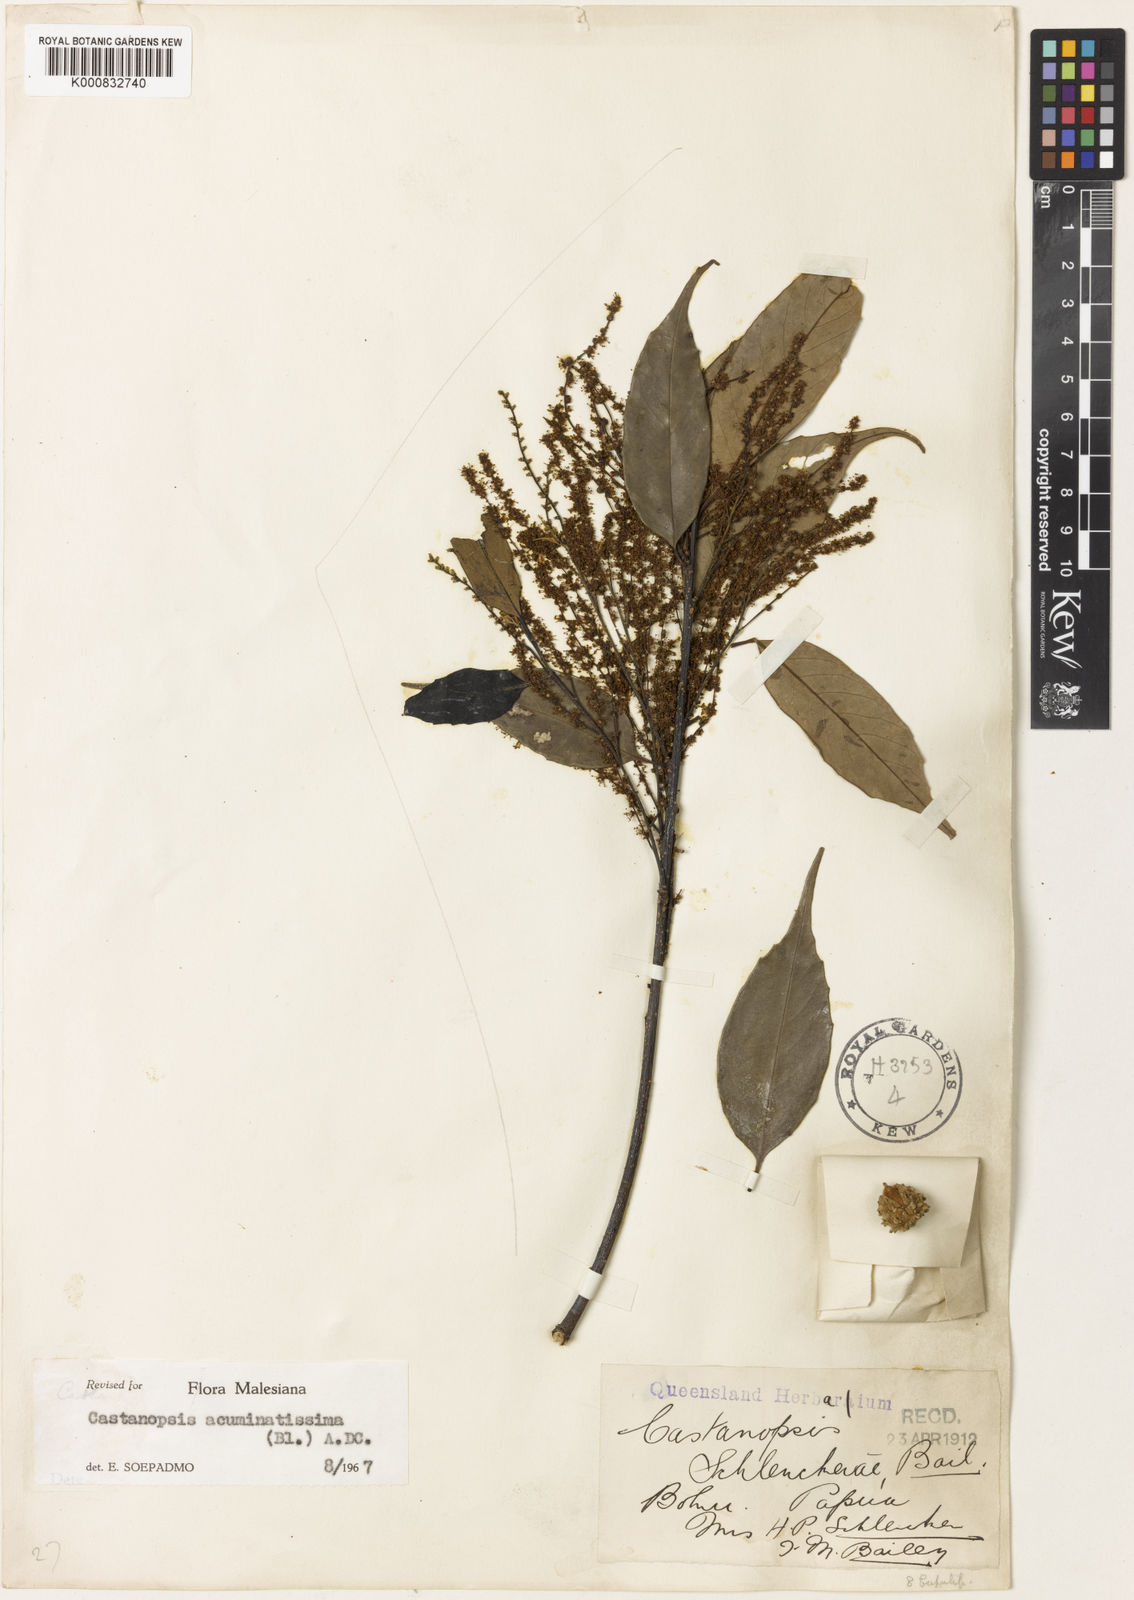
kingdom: Plantae
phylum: Tracheophyta
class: Magnoliopsida
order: Fagales
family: Fagaceae
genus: Castanopsis
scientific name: Castanopsis acuminatissima
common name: Papua new guinea oak
